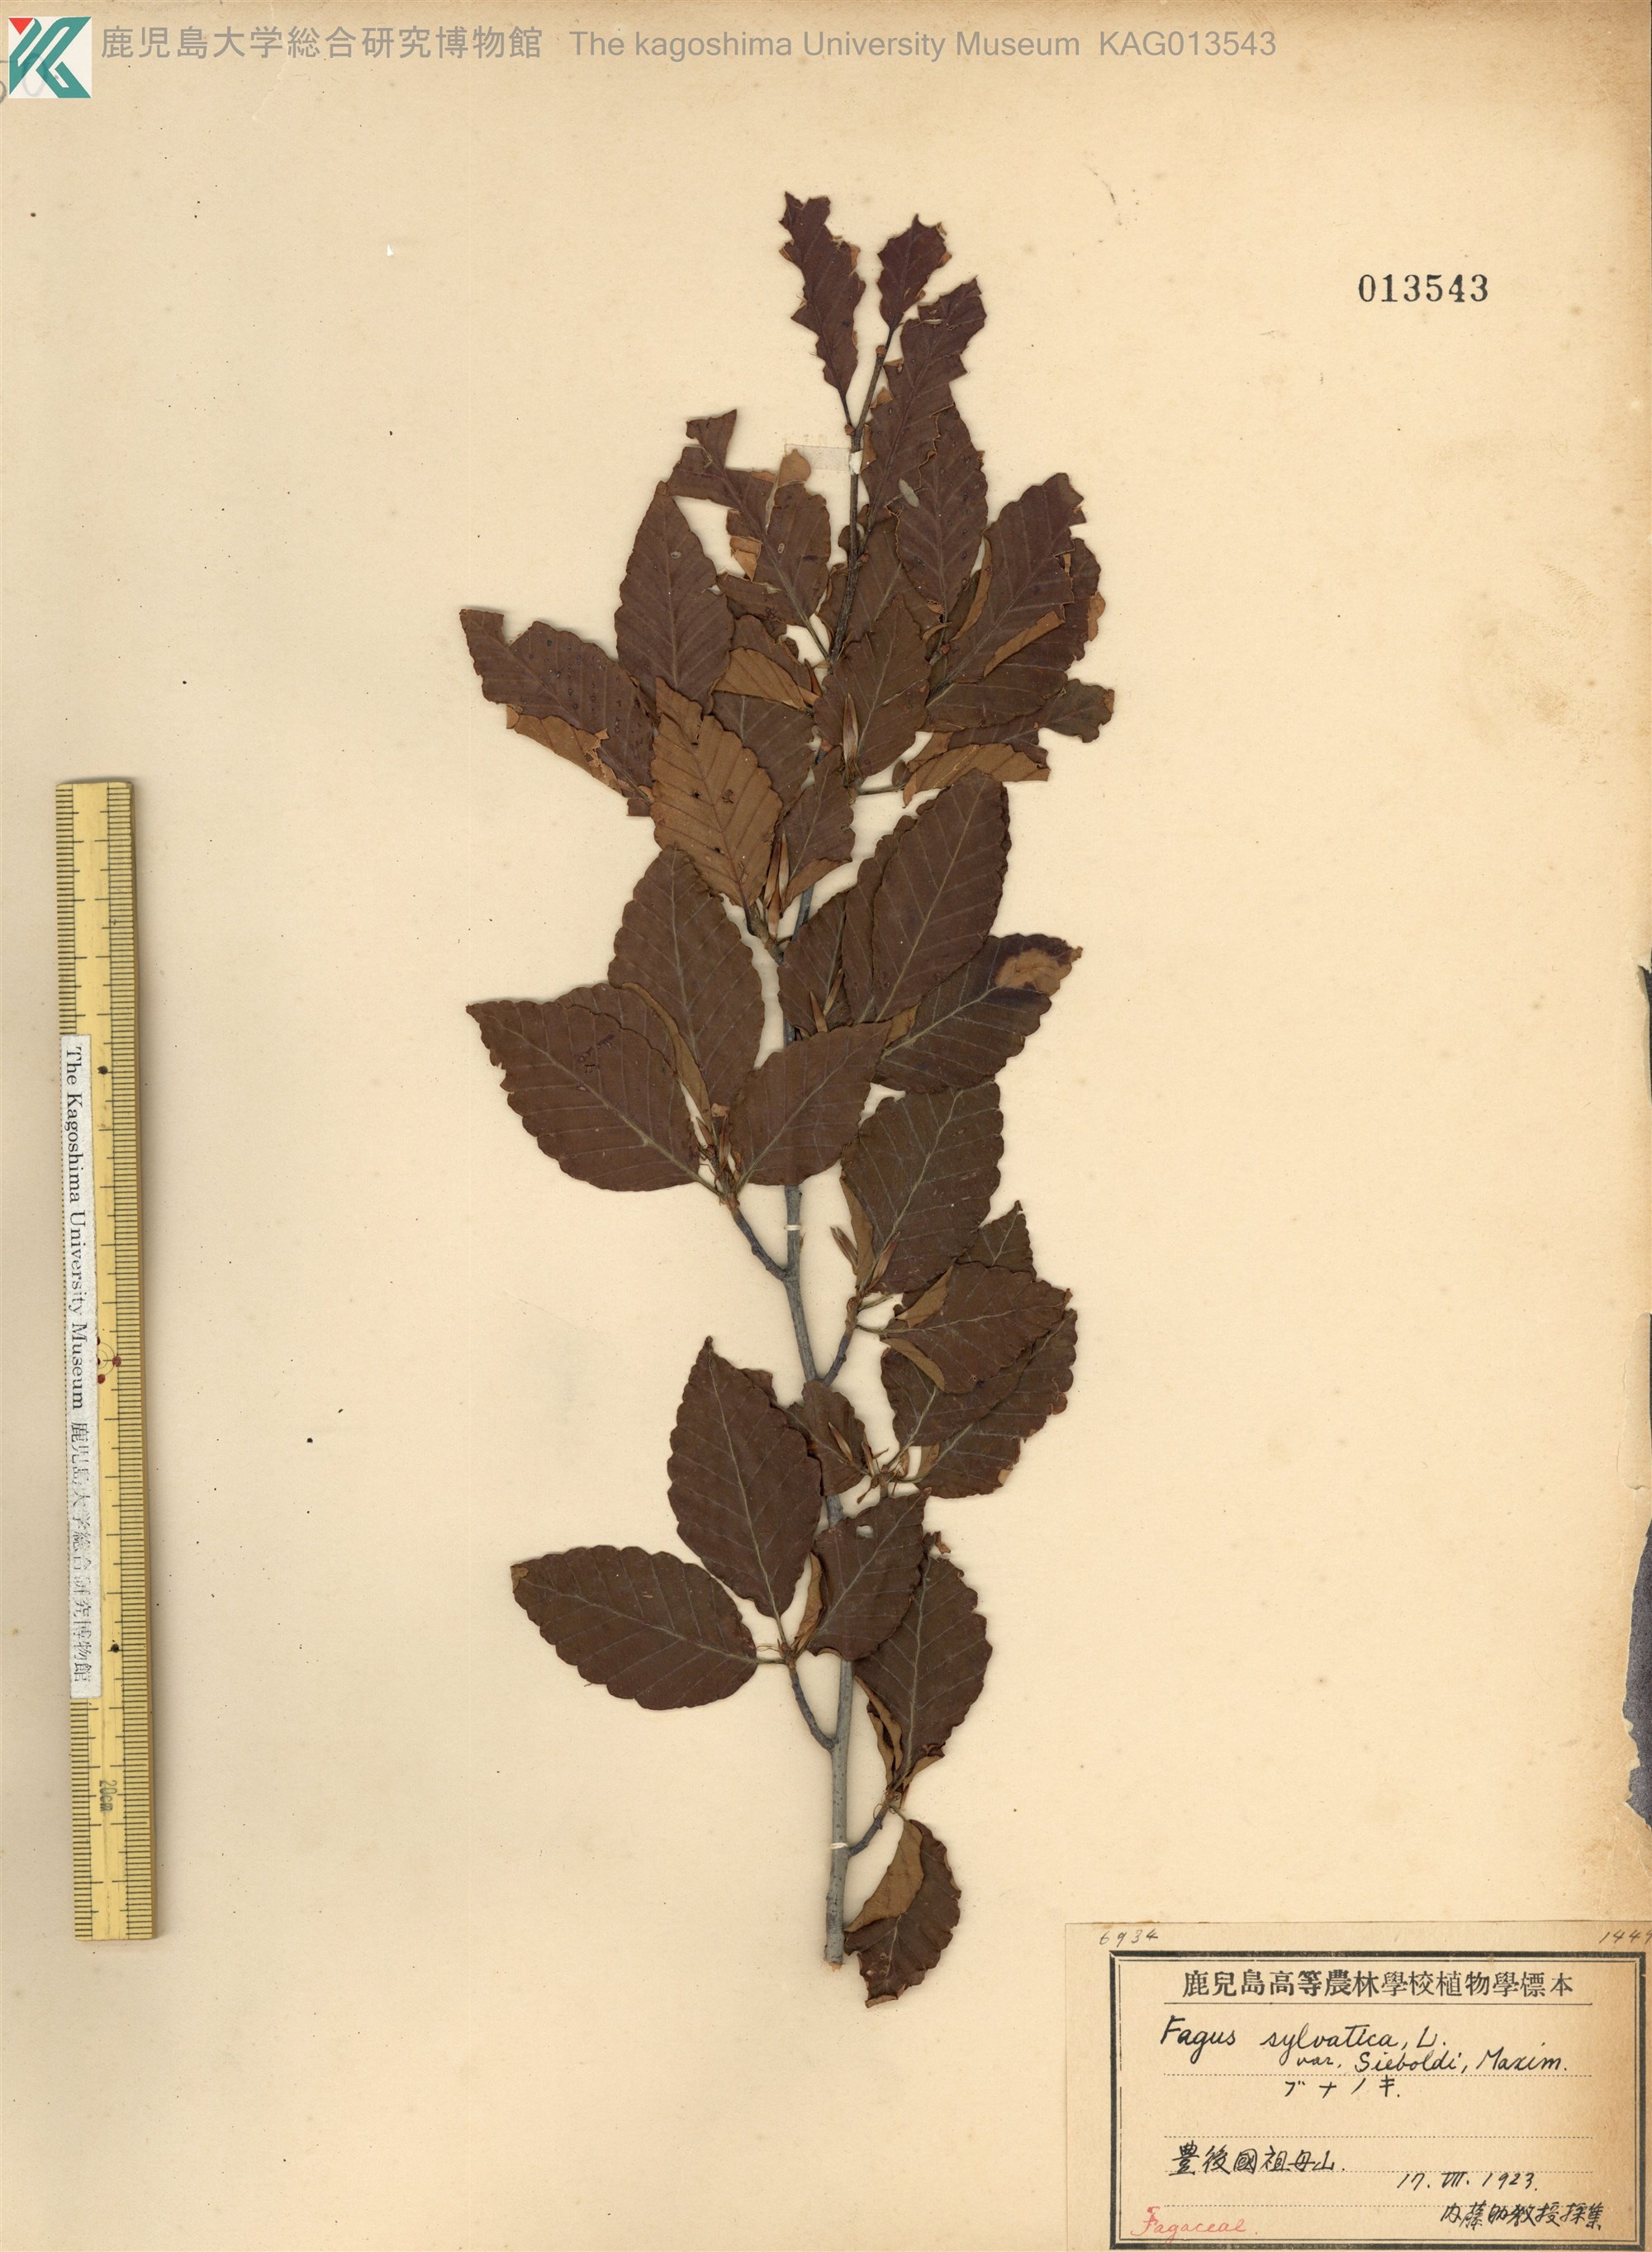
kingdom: Plantae
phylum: Tracheophyta
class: Magnoliopsida
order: Fagales
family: Fagaceae
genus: Fagus
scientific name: Fagus crenata
